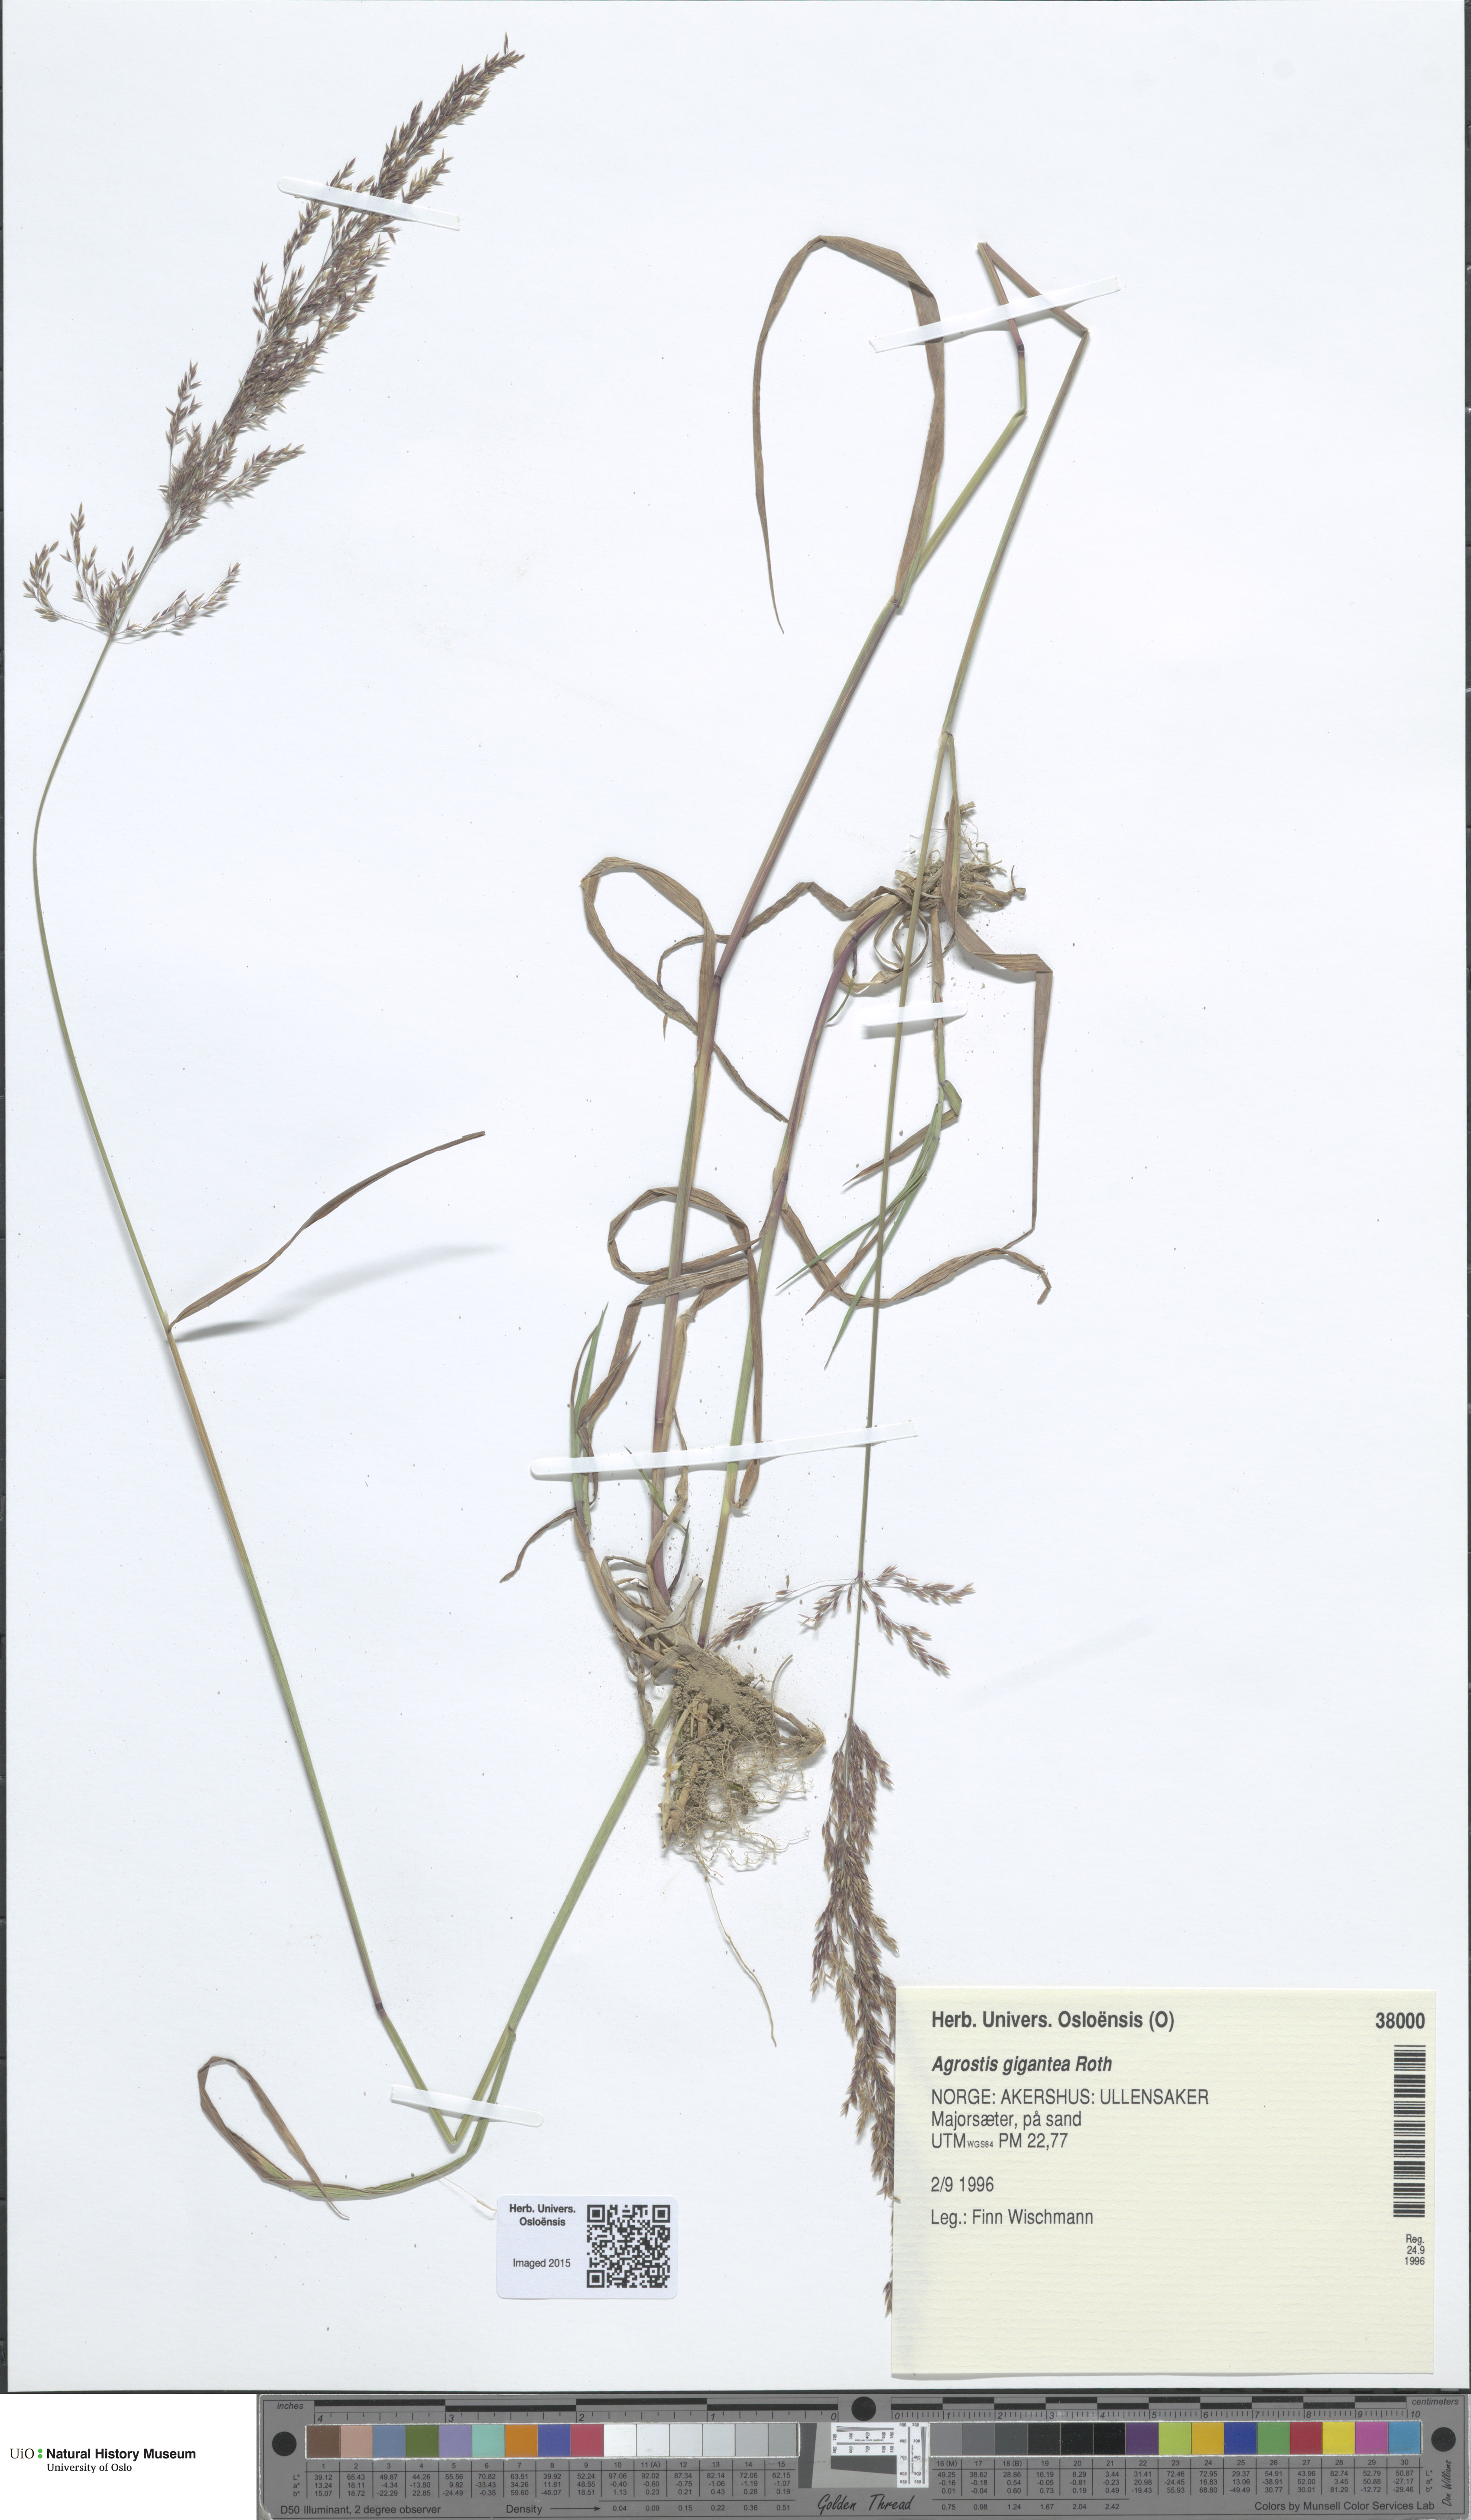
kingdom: Plantae
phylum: Tracheophyta
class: Liliopsida
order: Poales
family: Poaceae
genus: Agrostis
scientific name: Agrostis gigantea
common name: Black bent
